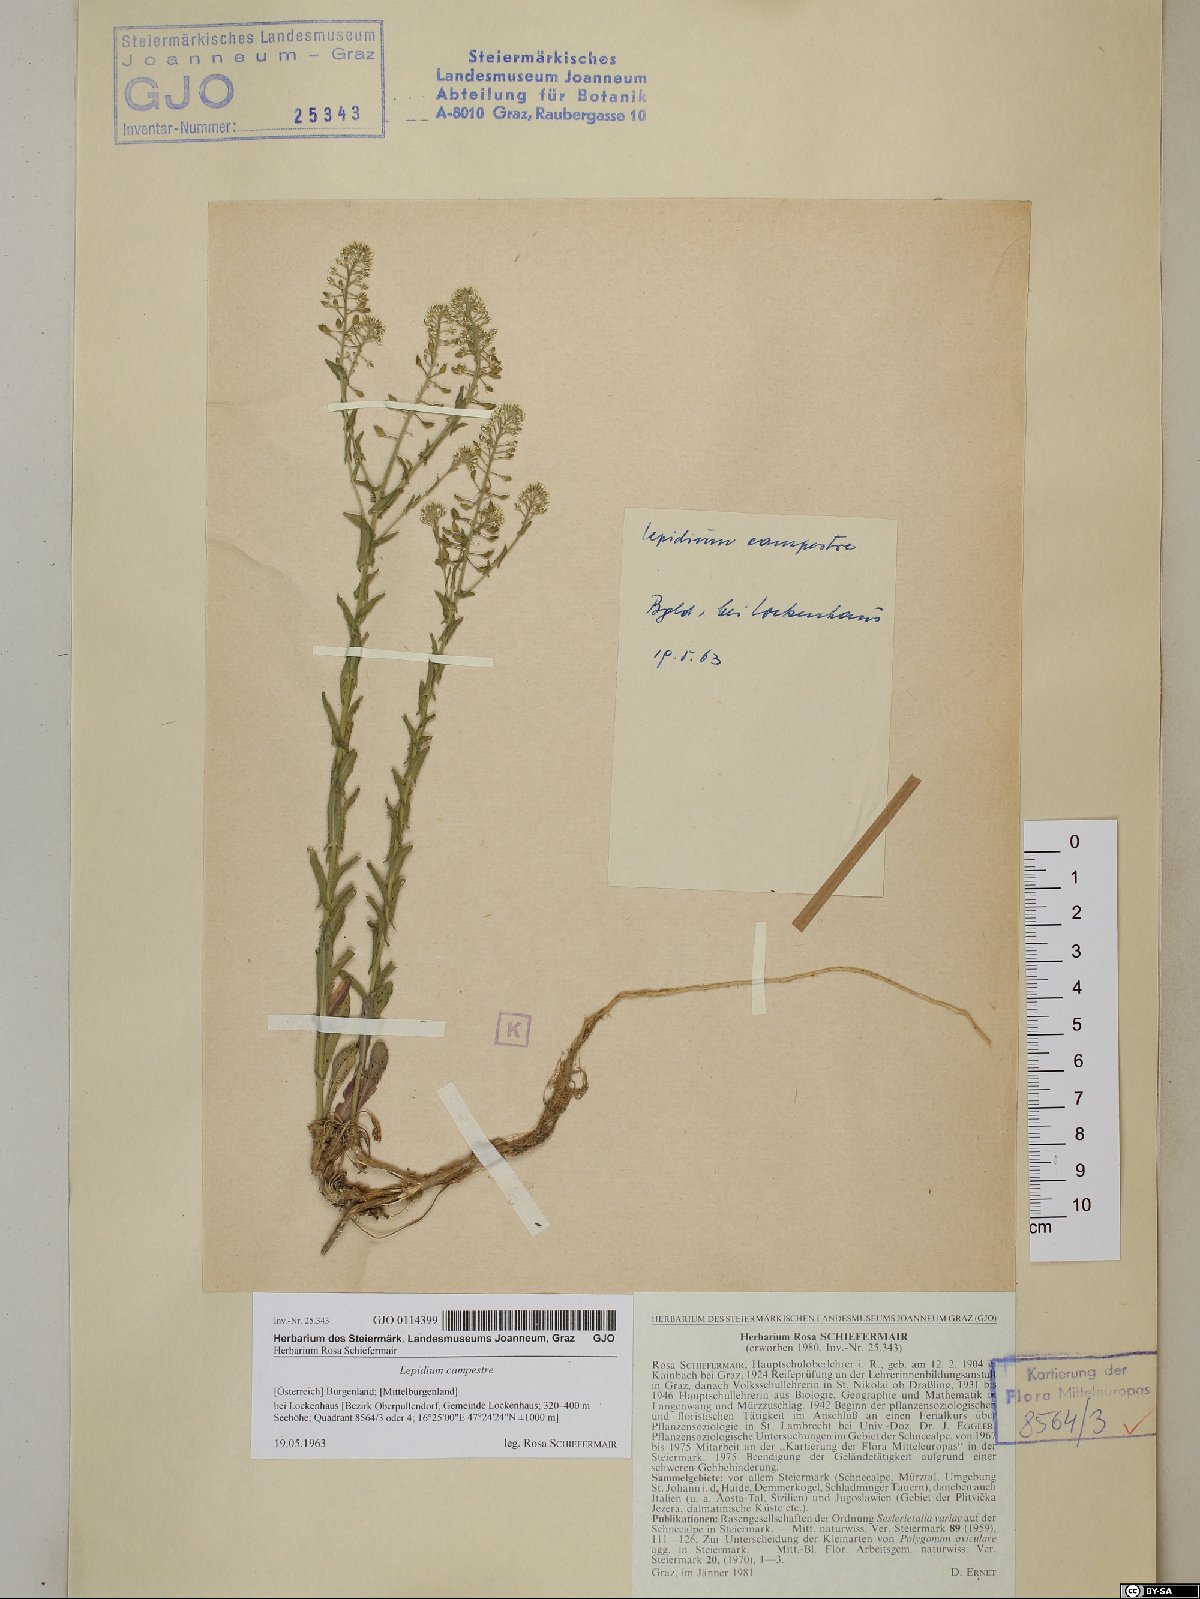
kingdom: Plantae
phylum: Tracheophyta
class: Magnoliopsida
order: Brassicales
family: Brassicaceae
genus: Lepidium
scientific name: Lepidium campestre
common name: Field pepperwort
